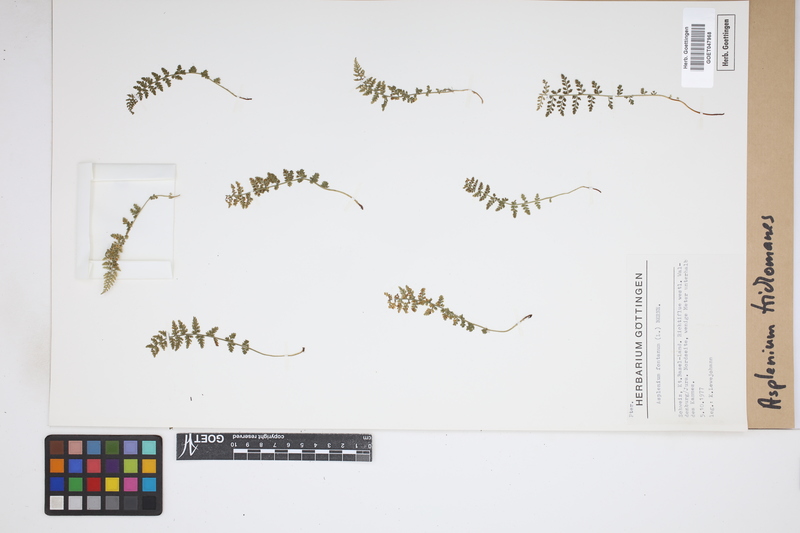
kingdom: Plantae
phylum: Tracheophyta
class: Polypodiopsida
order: Polypodiales
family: Aspleniaceae
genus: Asplenium
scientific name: Asplenium trichomanes
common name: Maidenhair spleenwort
